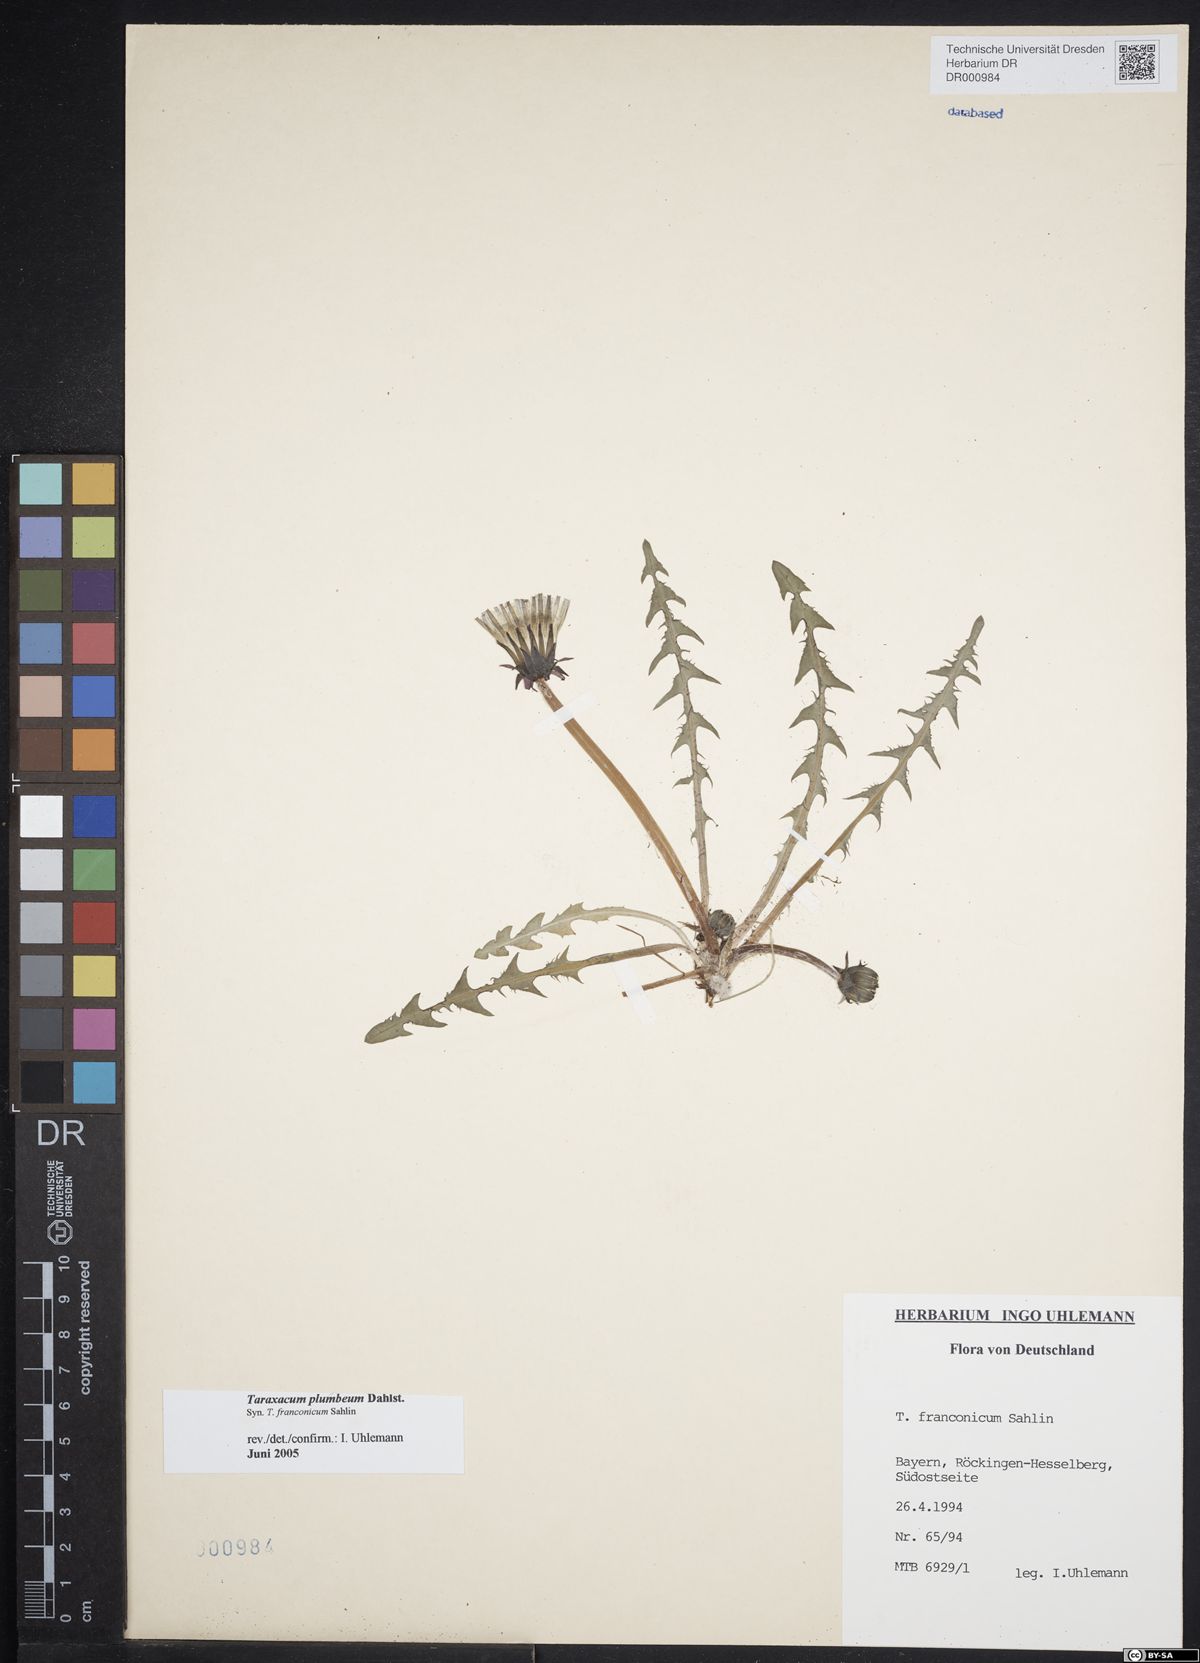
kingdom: Plantae
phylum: Tracheophyta
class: Magnoliopsida
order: Asterales
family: Asteraceae
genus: Taraxacum
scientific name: Taraxacum plumbeum
